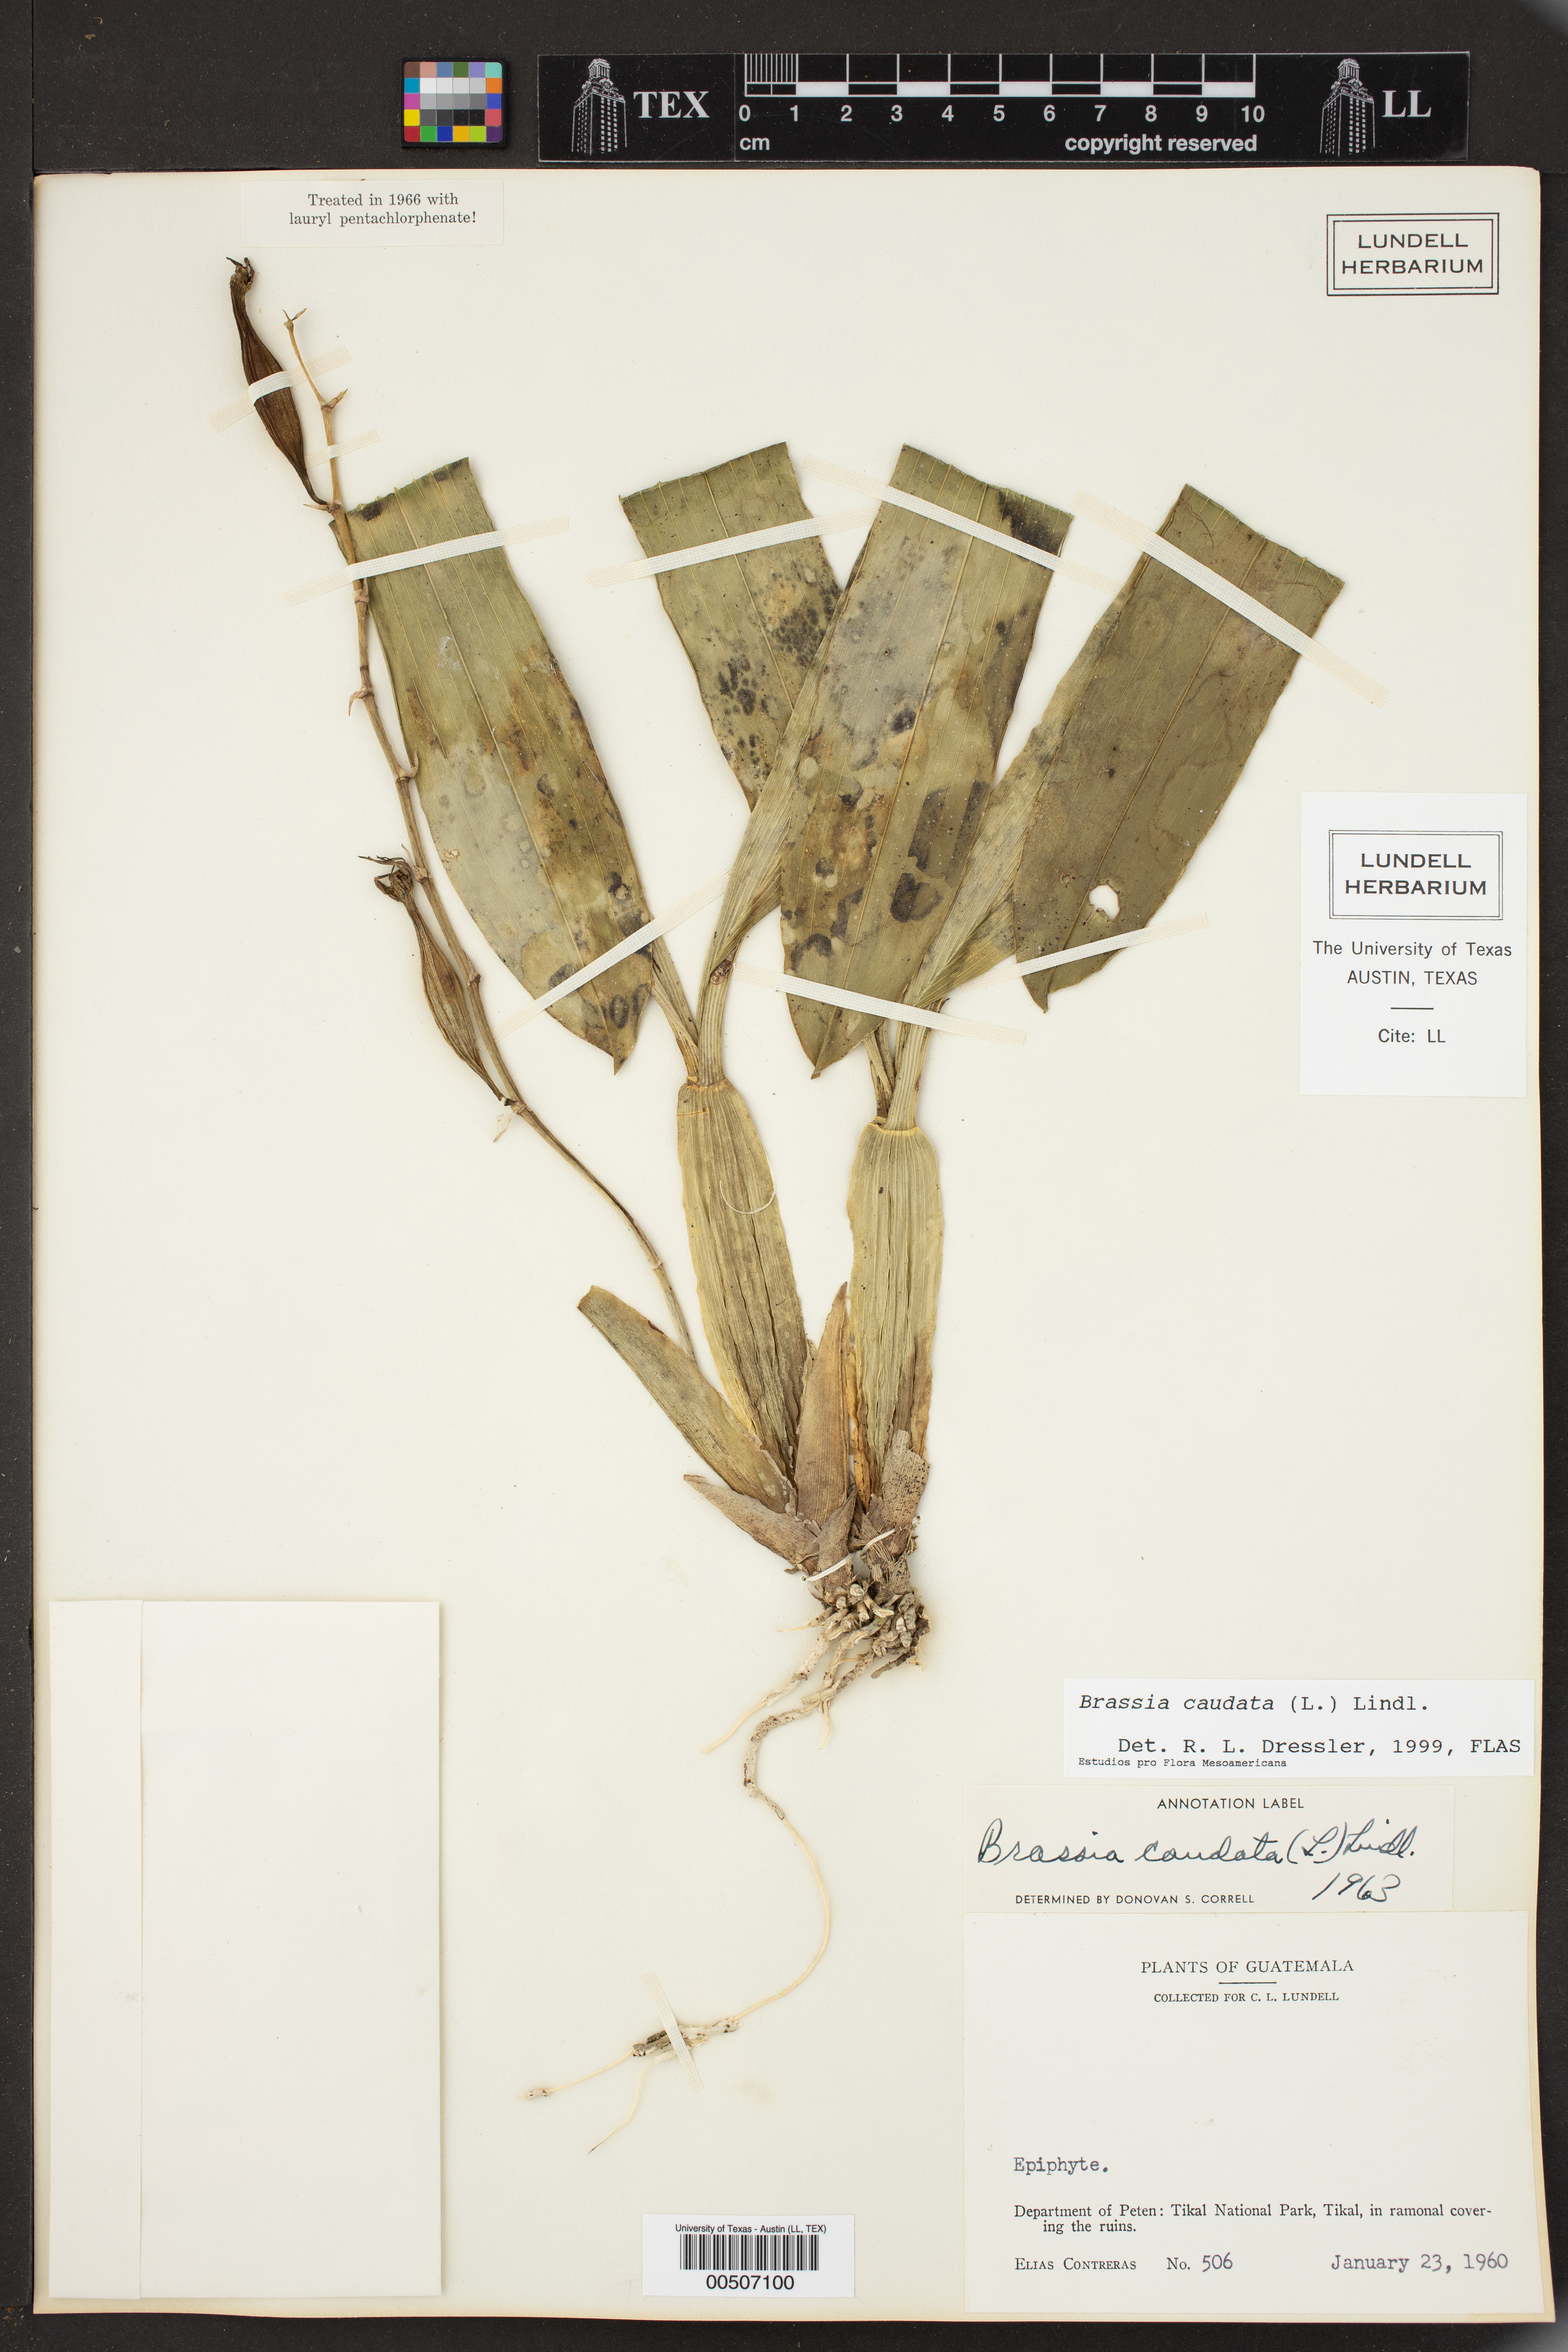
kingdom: Plantae
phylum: Tracheophyta
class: Liliopsida
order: Asparagales
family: Orchidaceae
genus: Brassia
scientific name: Brassia caudata
